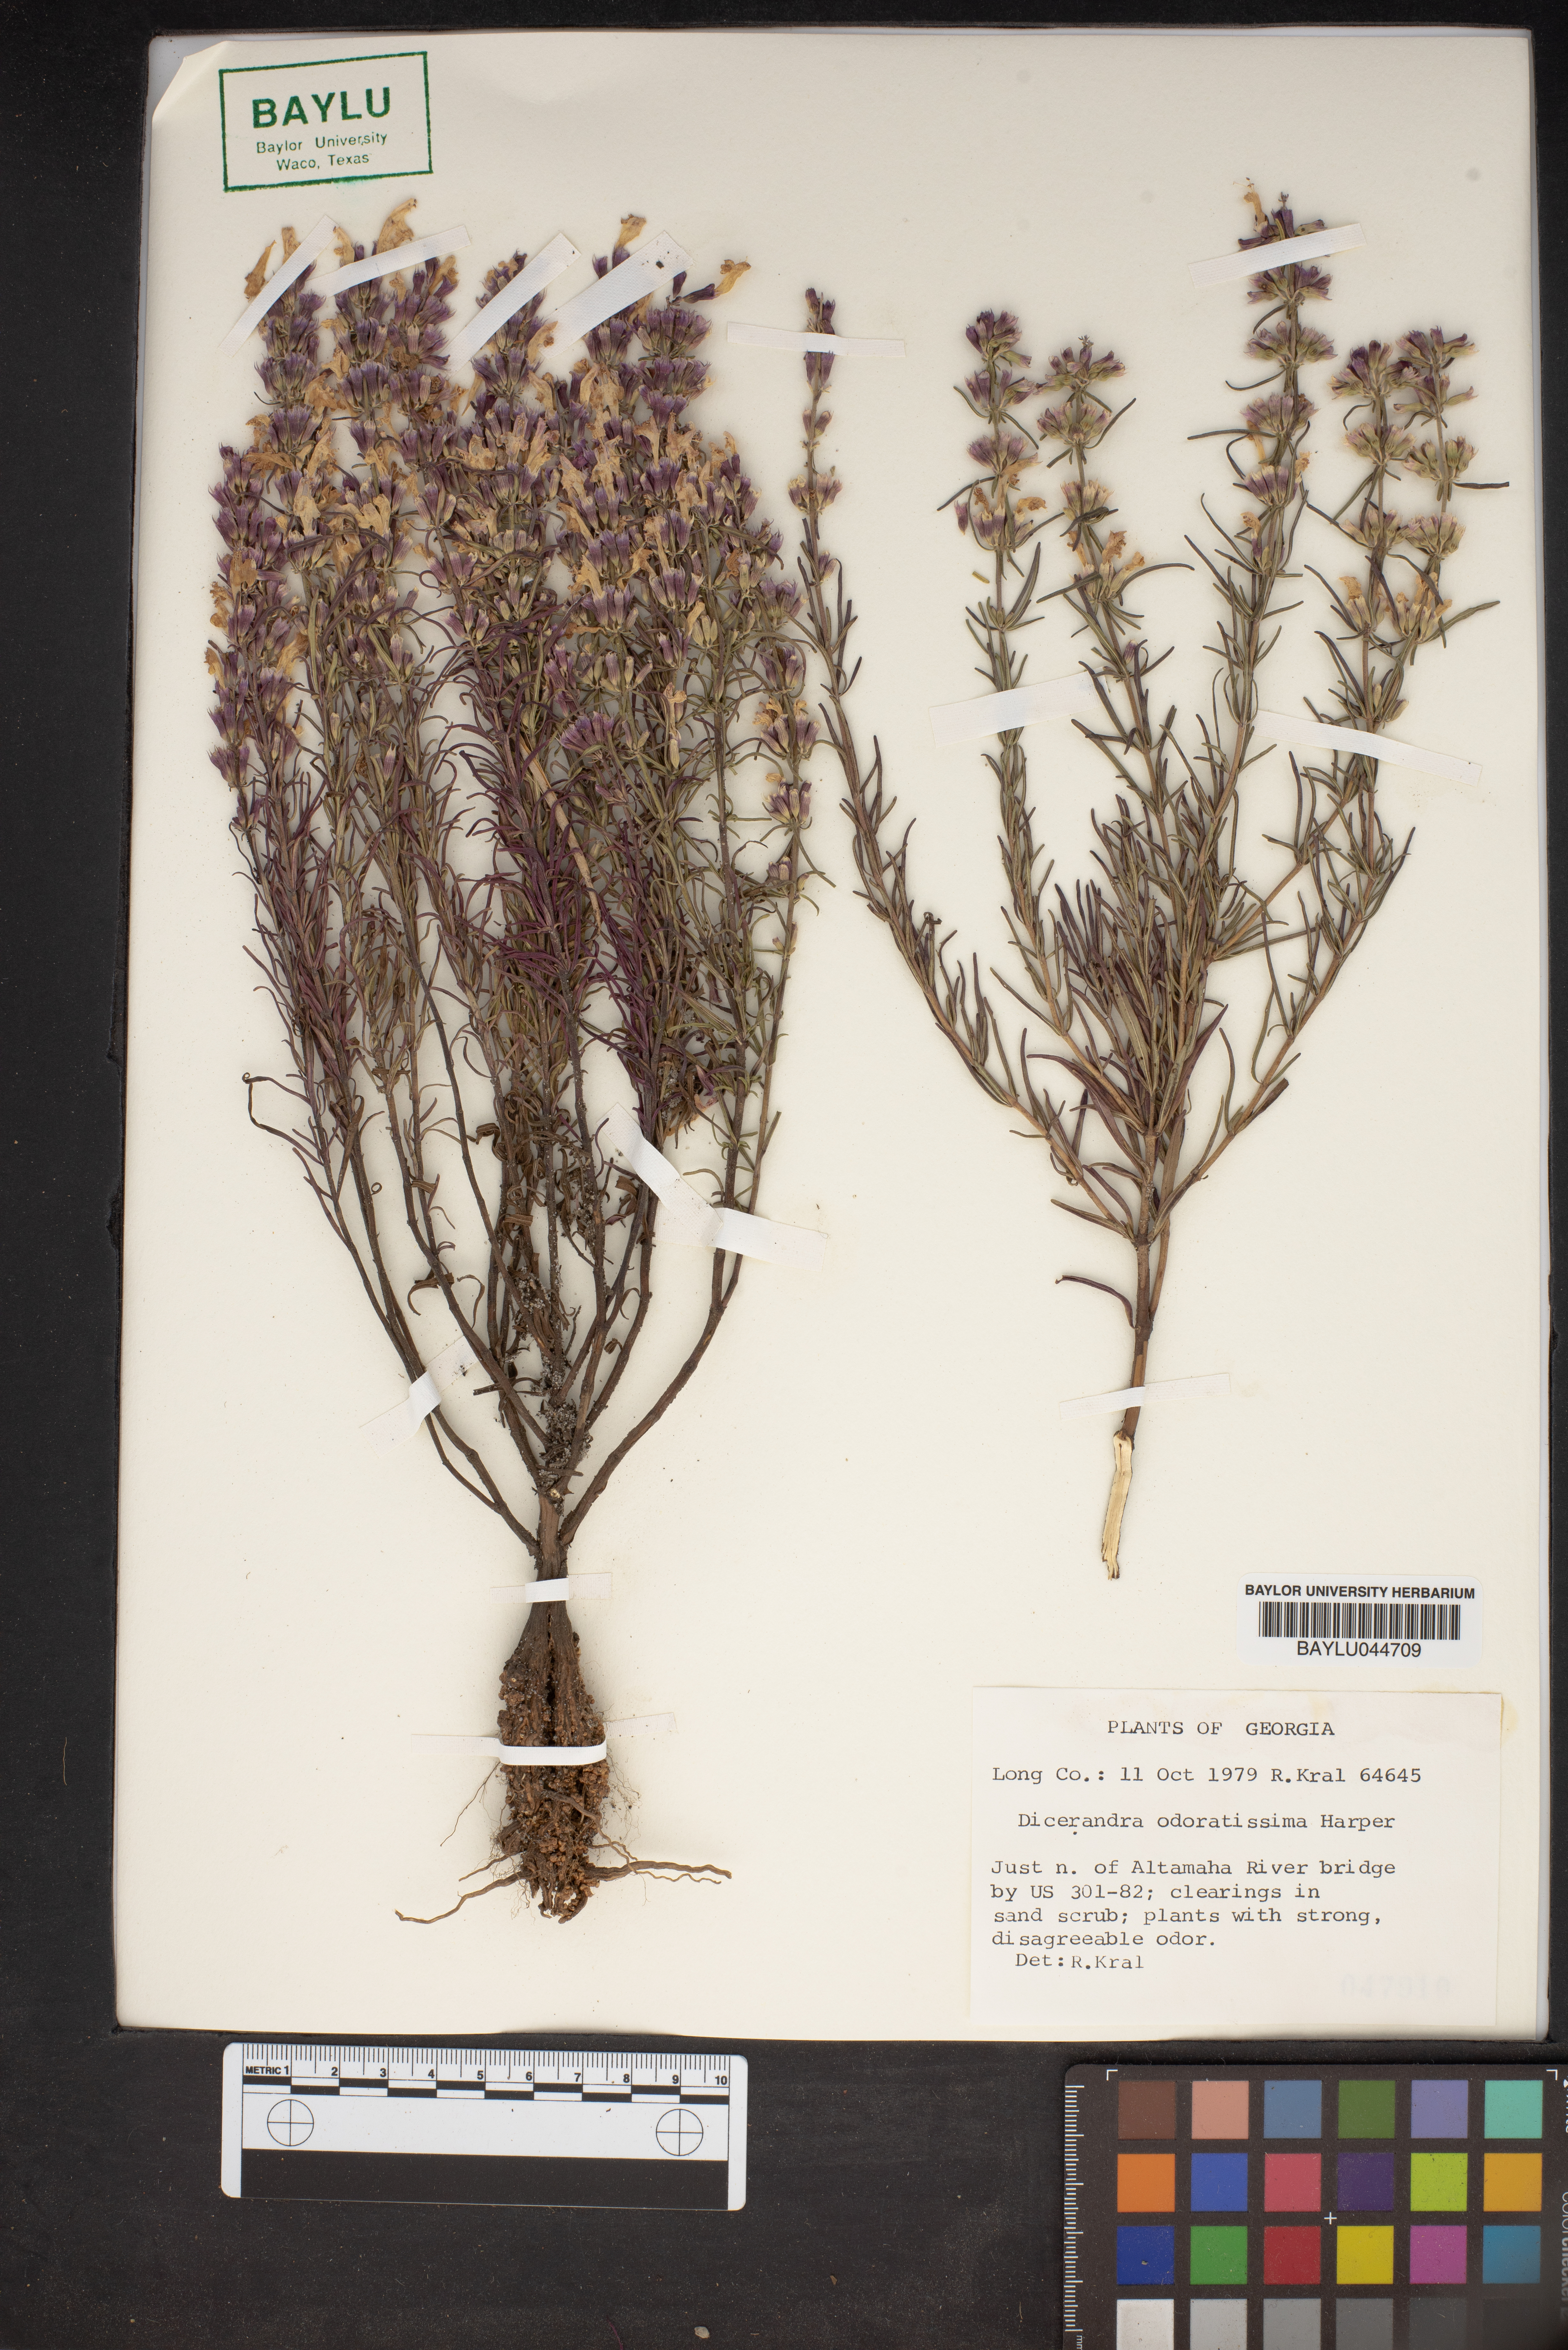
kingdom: Plantae
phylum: Tracheophyta
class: Magnoliopsida
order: Lamiales
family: Lamiaceae
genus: Dicerandra
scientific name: Dicerandra odoratissima
